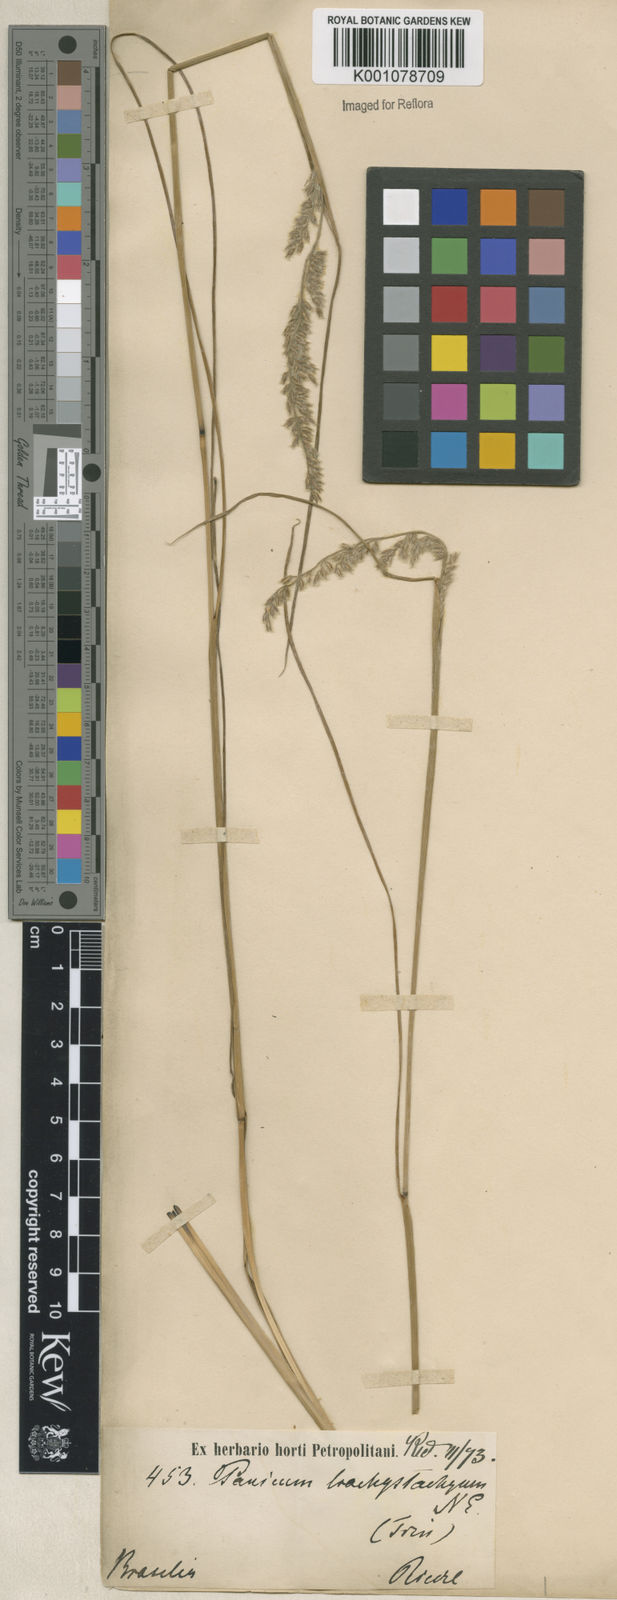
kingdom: Plantae
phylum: Tracheophyta
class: Liliopsida
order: Poales
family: Poaceae
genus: Anthaenantiopsis
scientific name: Anthaenantiopsis trachystachya
